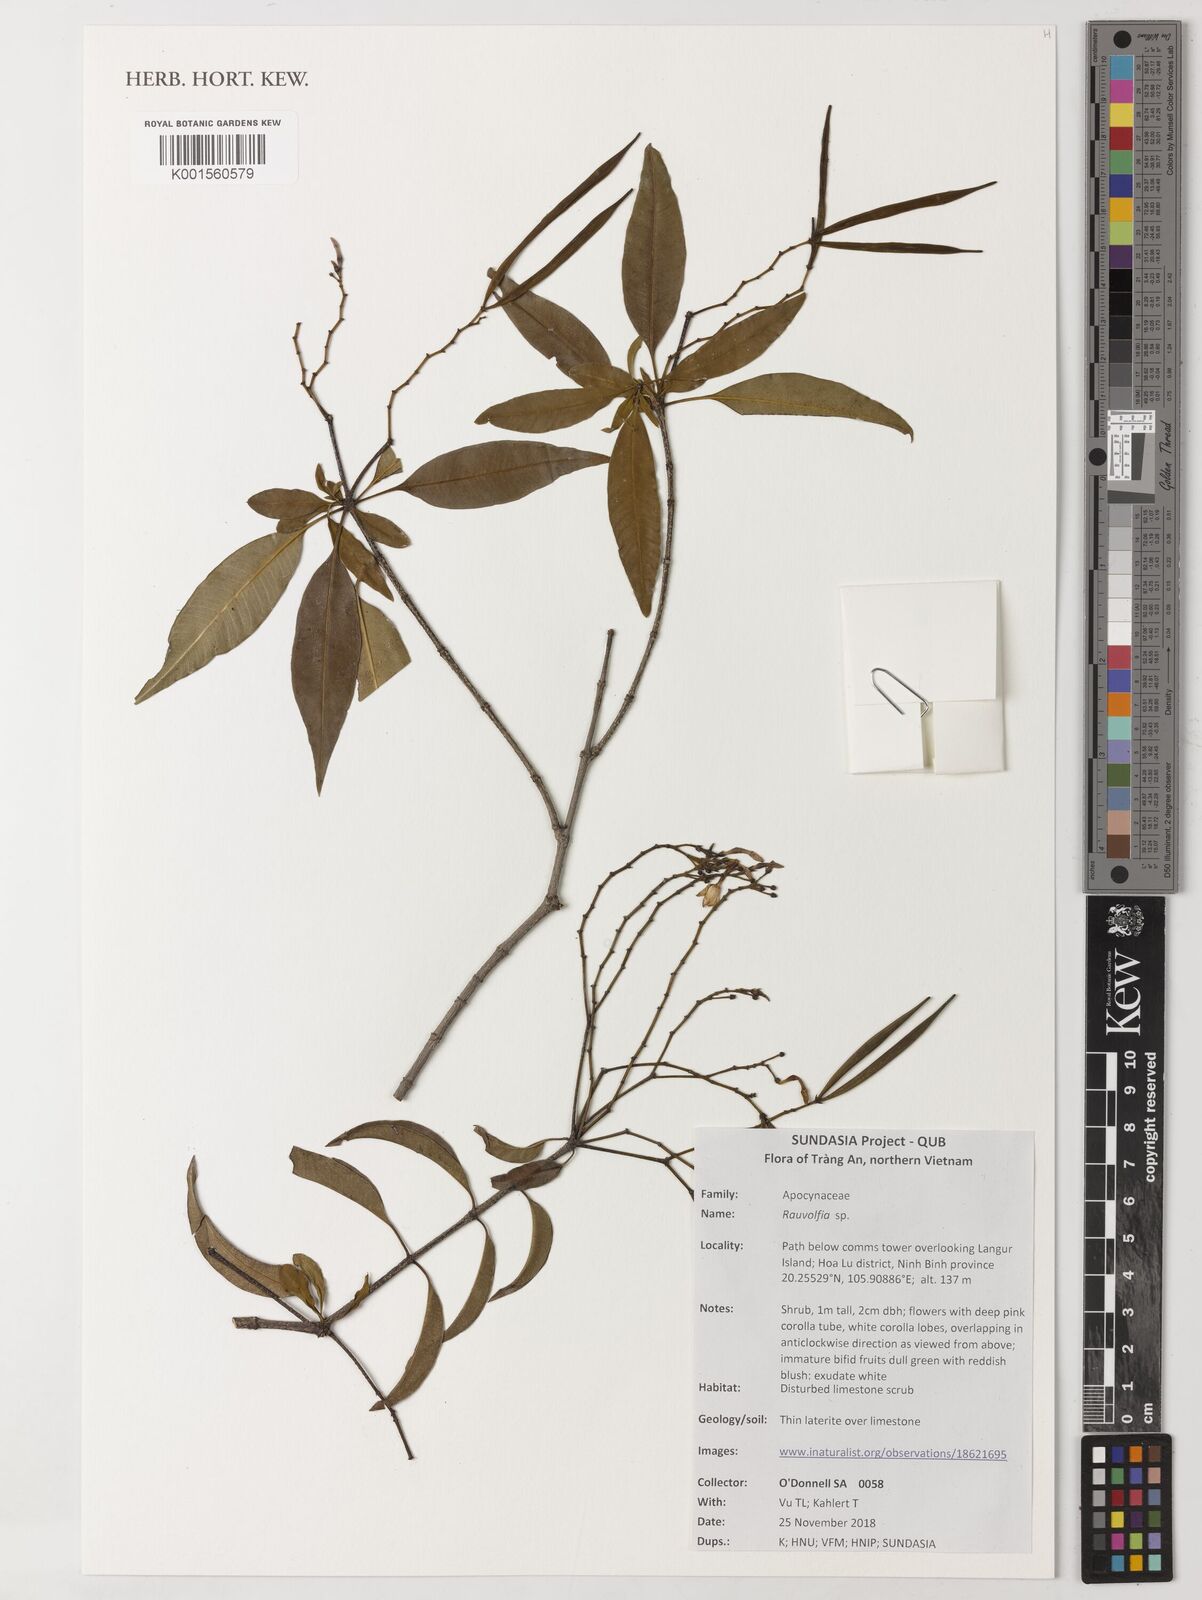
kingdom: Plantae
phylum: Tracheophyta
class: Magnoliopsida
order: Gentianales
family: Apocynaceae
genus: Rauvolfia
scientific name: Rauvolfia
